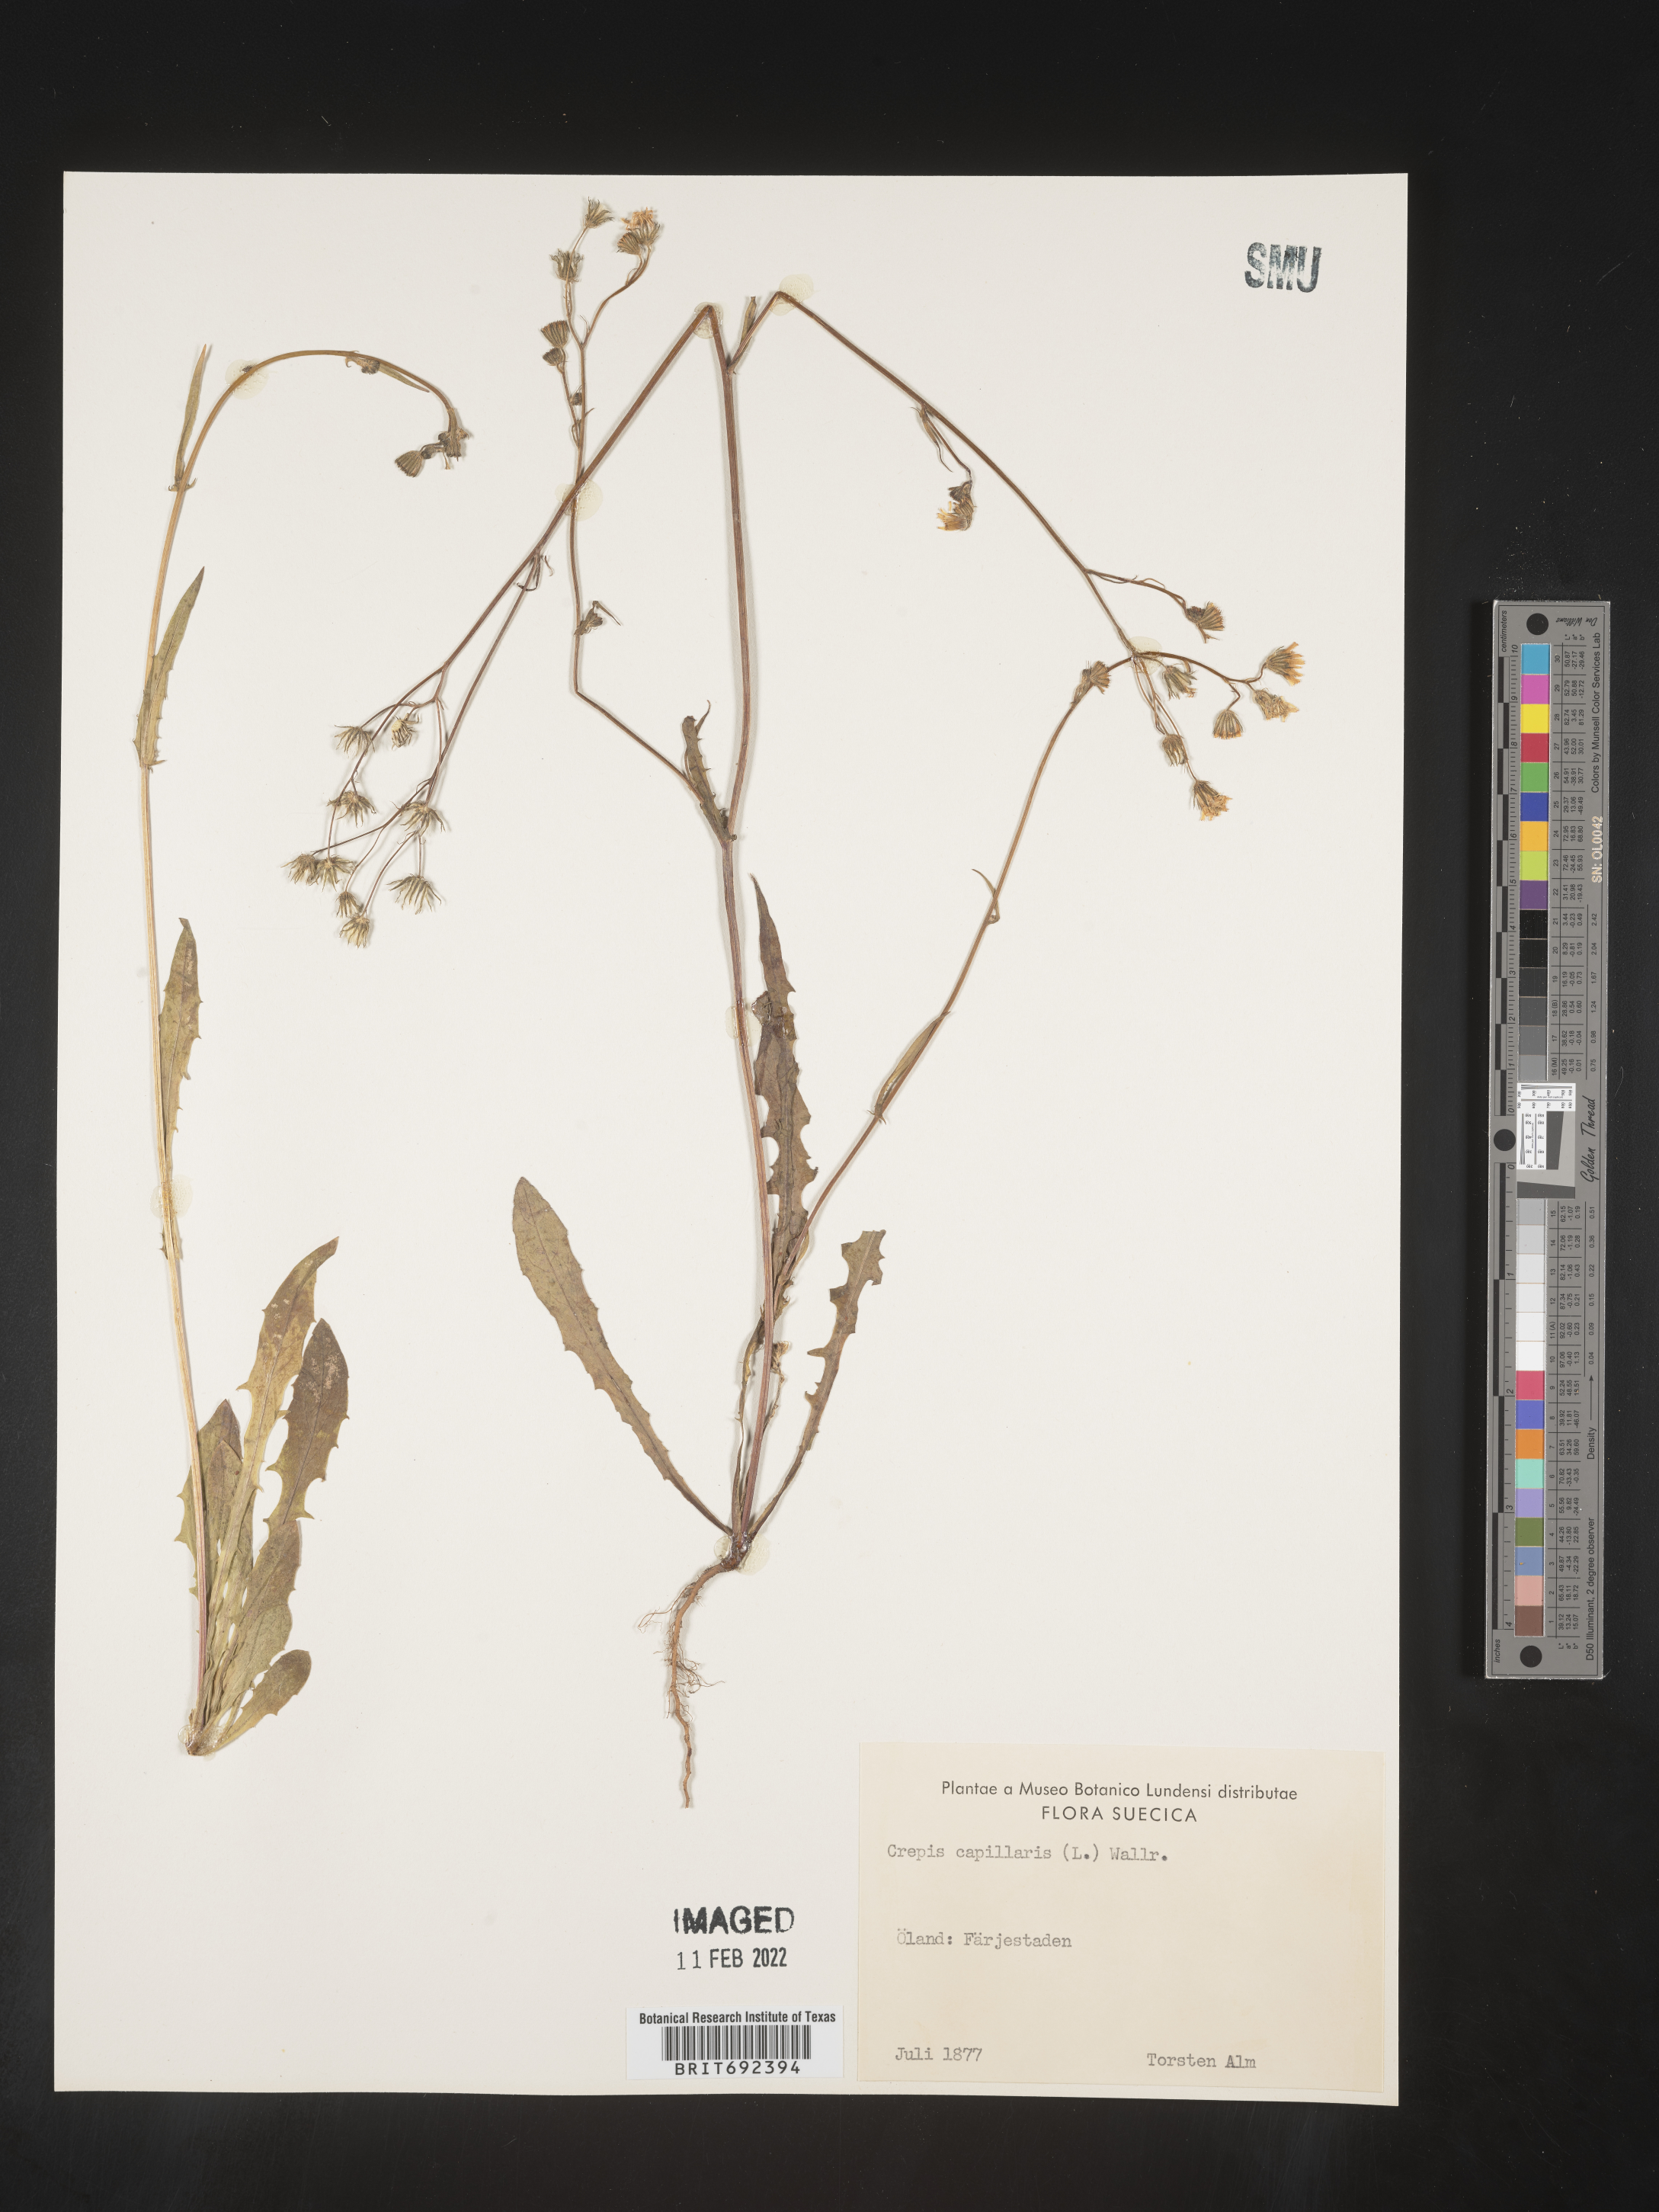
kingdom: Plantae
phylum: Tracheophyta
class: Magnoliopsida
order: Asterales
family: Asteraceae
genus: Crepis
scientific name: Crepis
